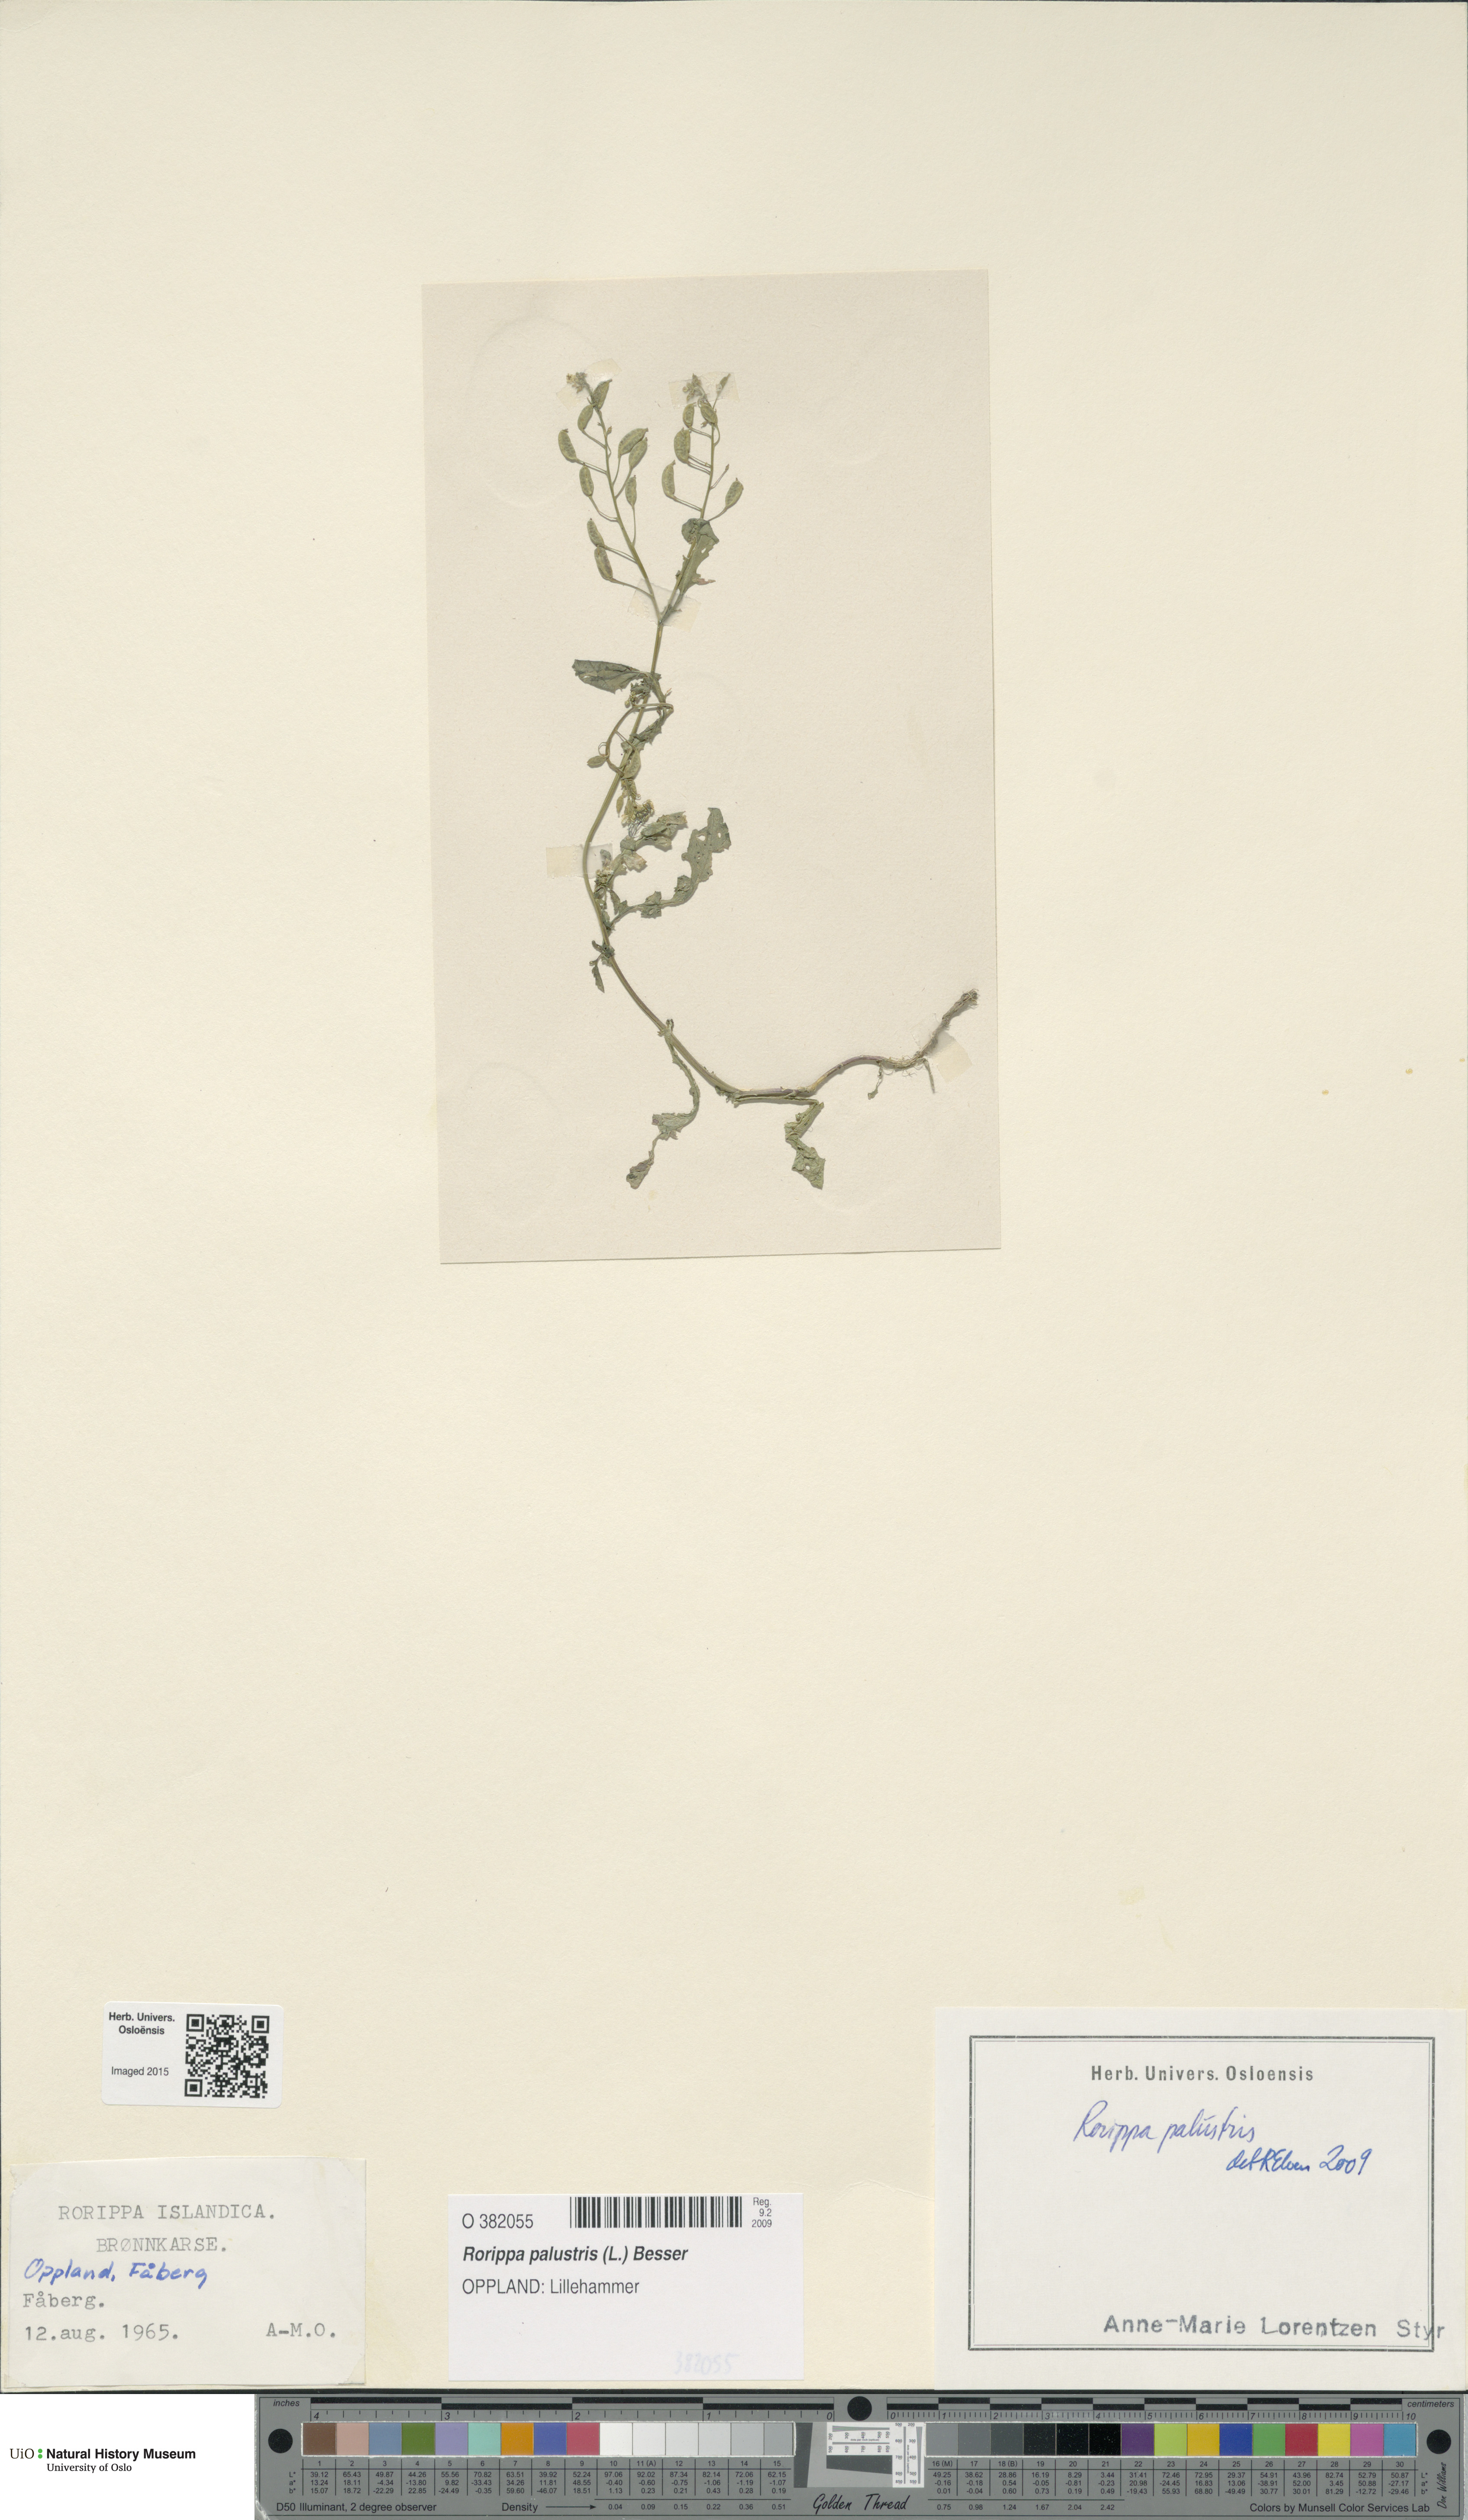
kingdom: Plantae
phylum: Tracheophyta
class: Magnoliopsida
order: Brassicales
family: Brassicaceae
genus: Rorippa
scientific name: Rorippa palustris
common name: Marsh yellow-cress
